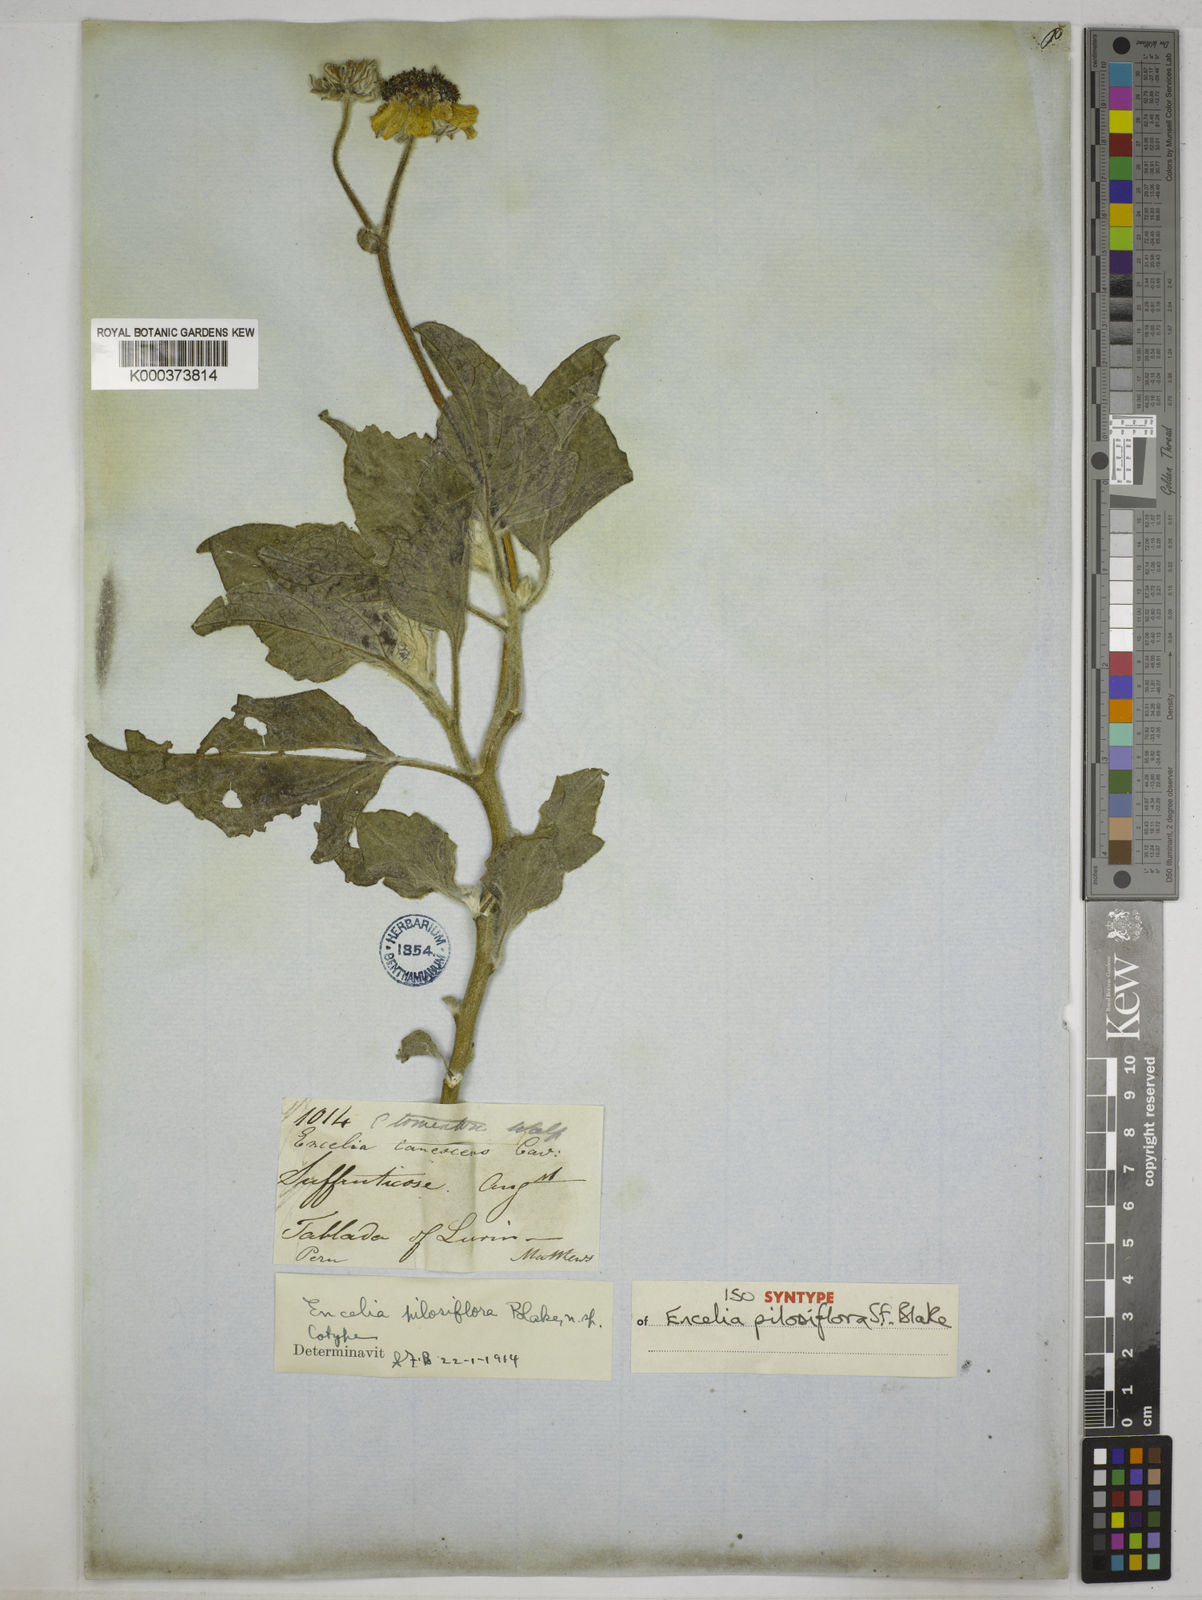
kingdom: Plantae
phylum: Tracheophyta
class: Magnoliopsida
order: Asterales
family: Asteraceae
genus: Encelia
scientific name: Encelia pilosiflora
